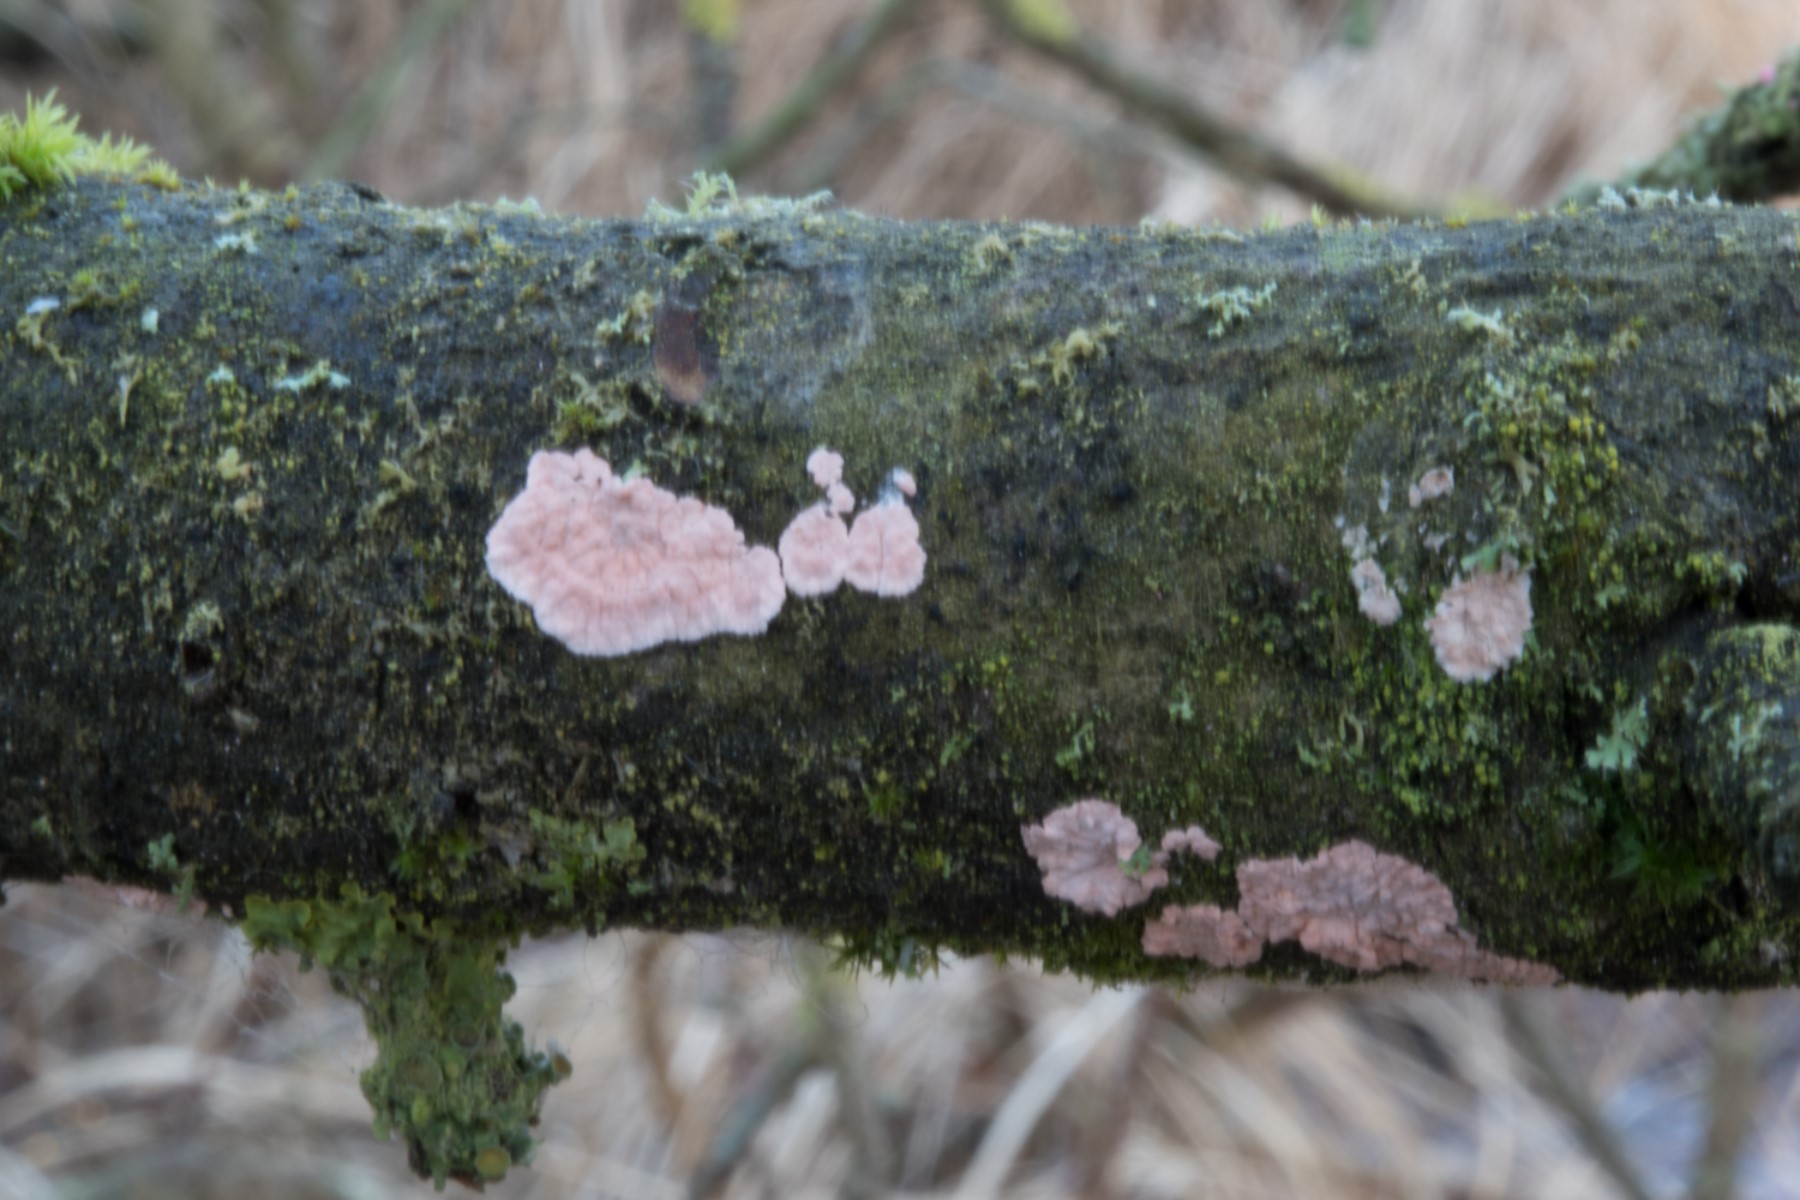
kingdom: Fungi
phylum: Basidiomycota
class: Agaricomycetes
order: Corticiales
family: Corticiaceae
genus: Corticium
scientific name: Corticium roseum
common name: rosa barkskind
